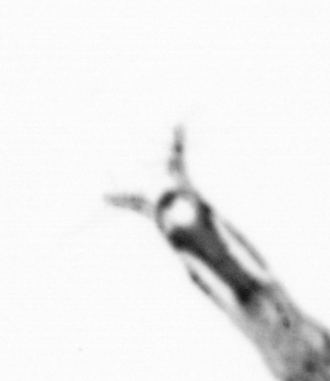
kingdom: Animalia
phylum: Arthropoda
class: Copepoda
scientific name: Copepoda
